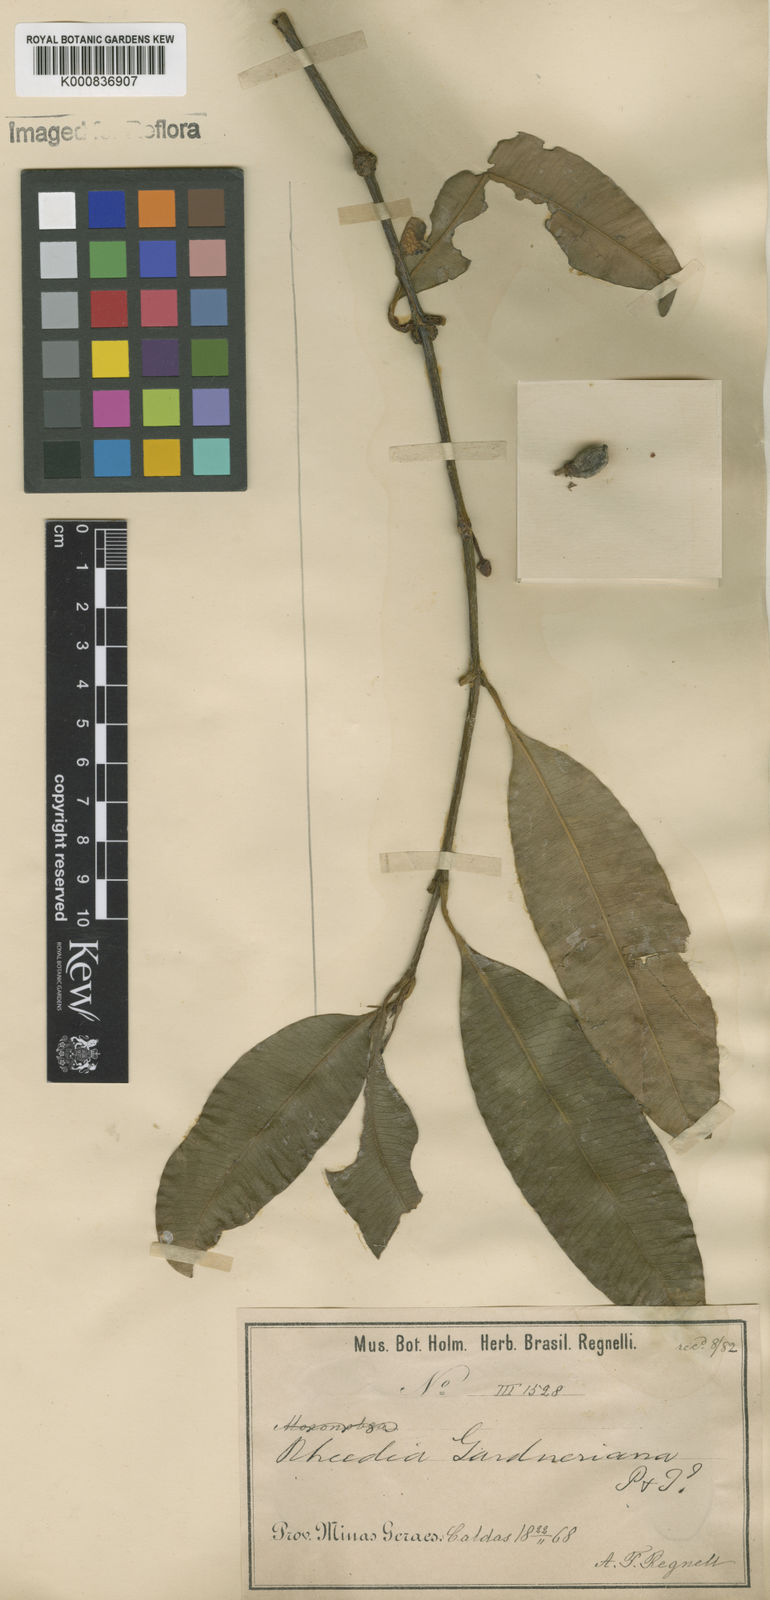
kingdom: Plantae
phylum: Tracheophyta
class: Magnoliopsida
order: Malpighiales
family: Clusiaceae
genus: Garcinia
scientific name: Garcinia gardneriana
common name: Achacha
